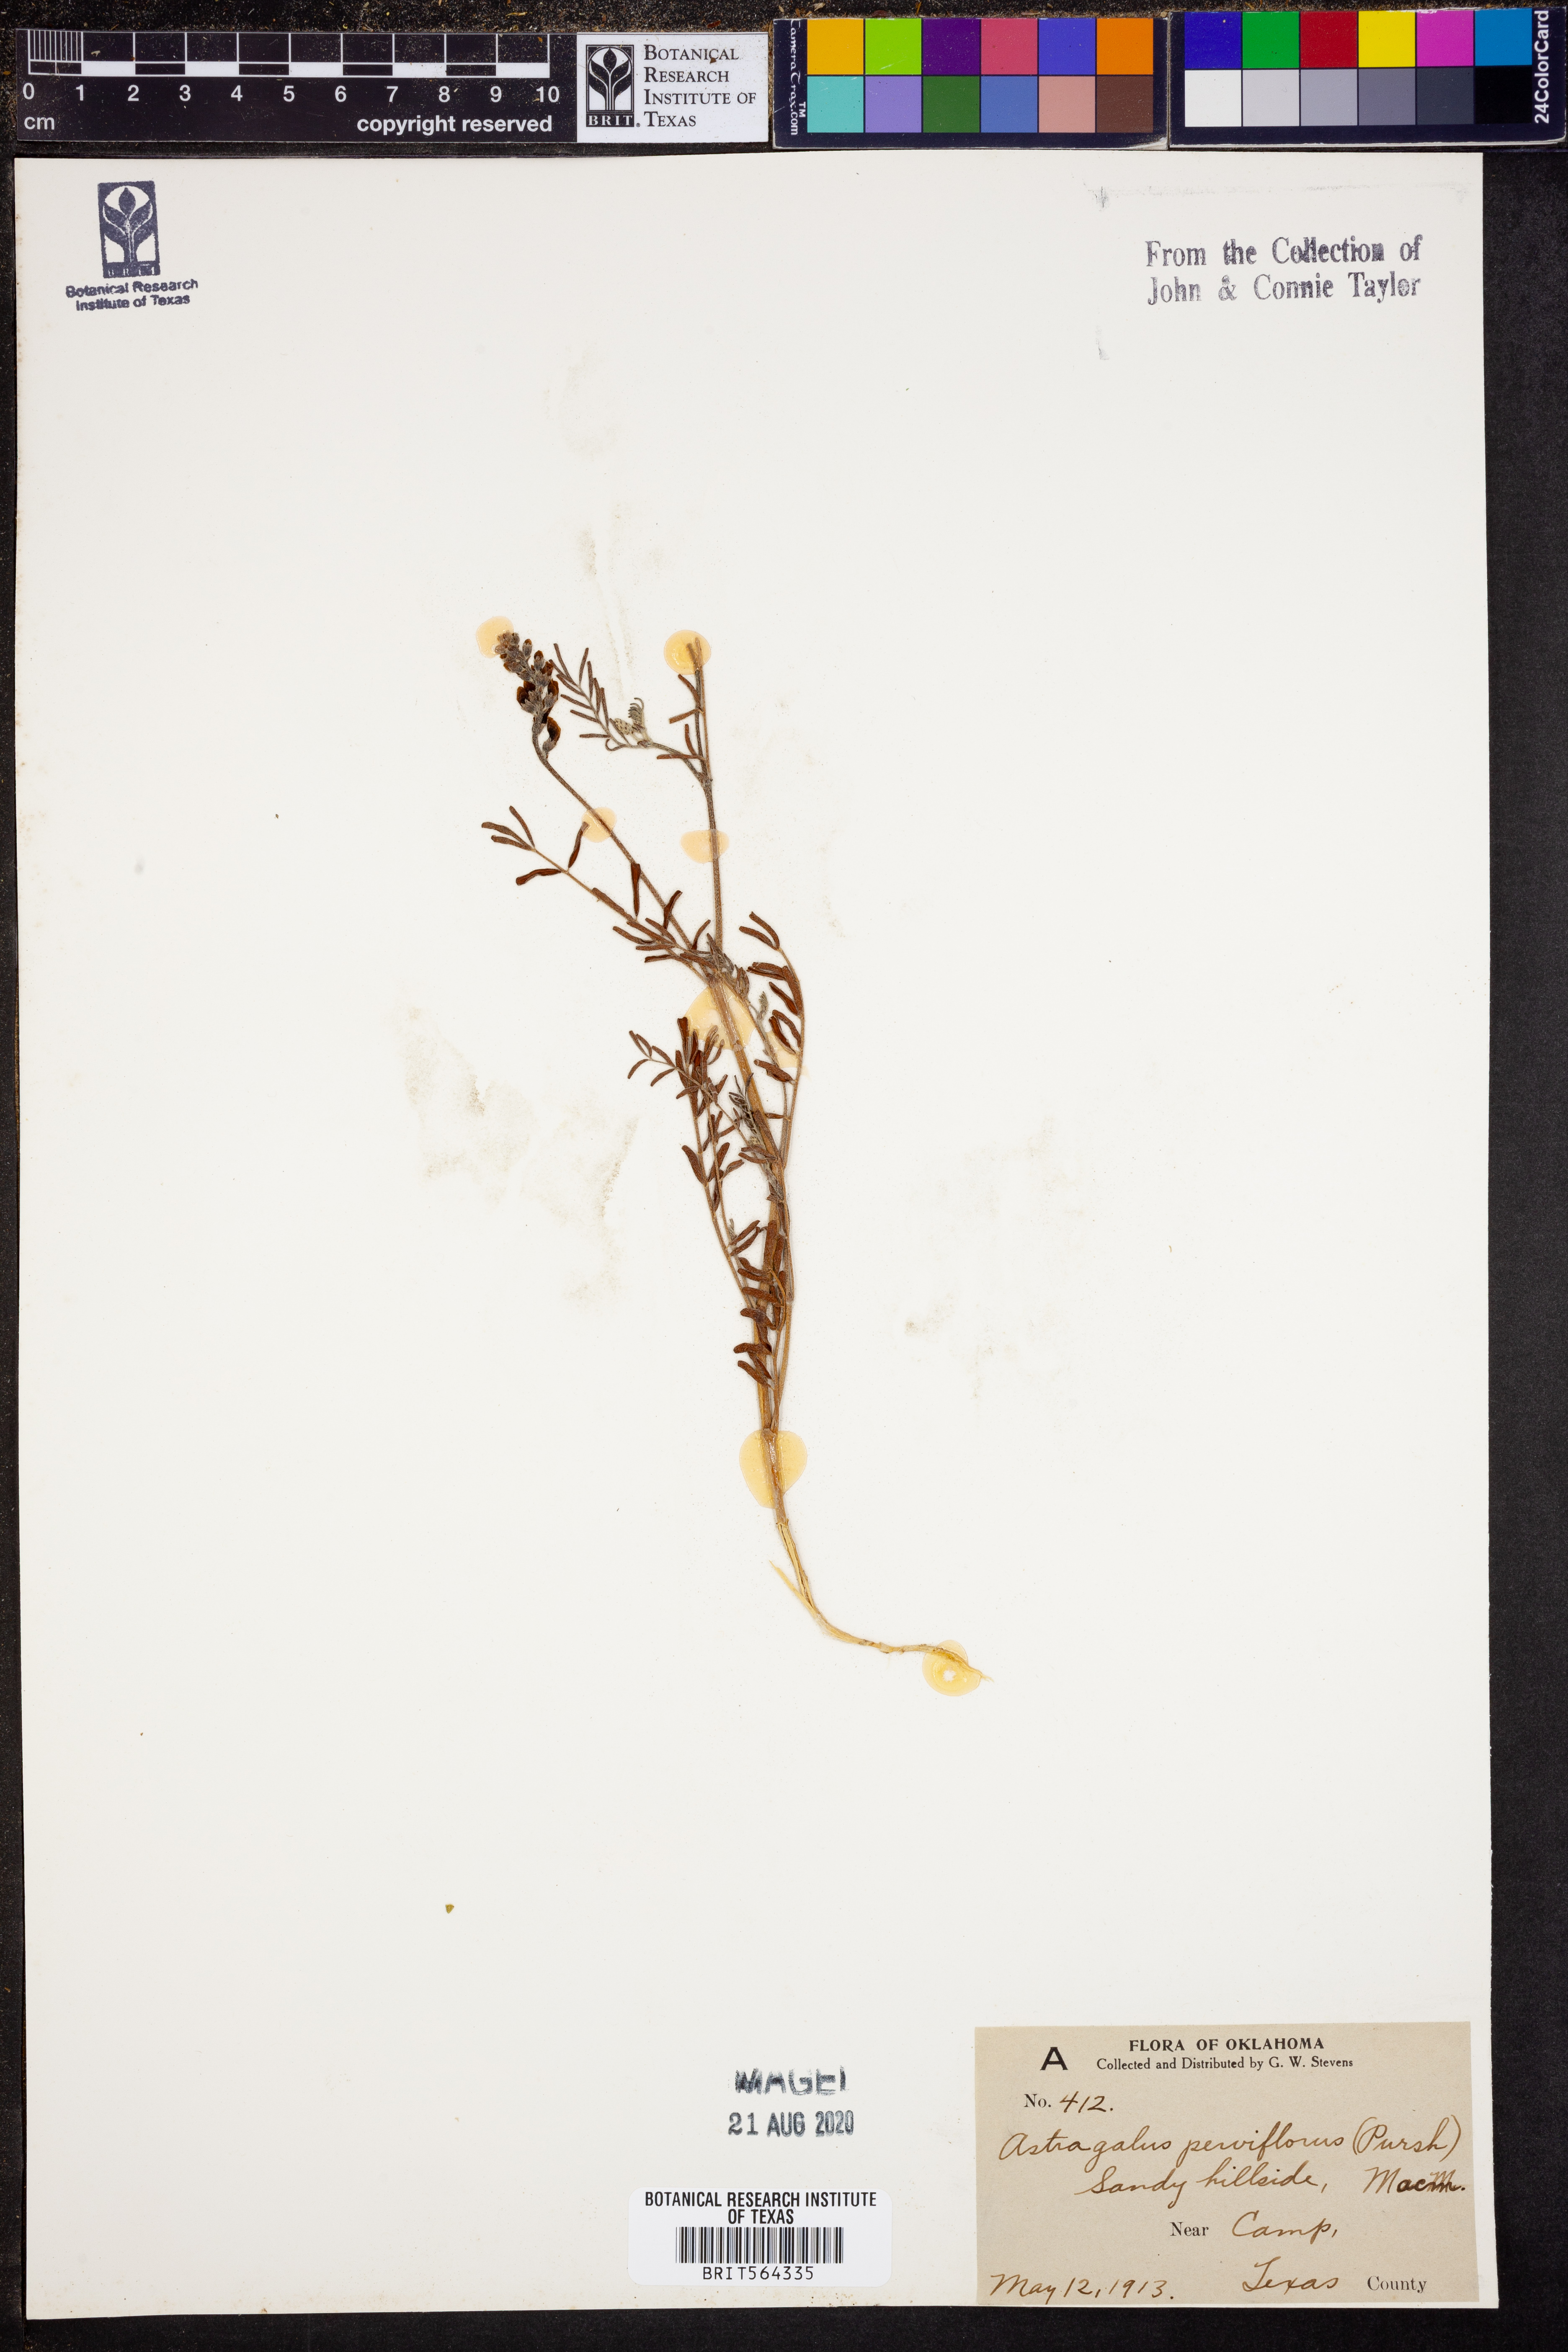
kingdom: Plantae
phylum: Tracheophyta
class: Magnoliopsida
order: Fabales
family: Fabaceae
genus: Astragalus
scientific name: Astragalus gracilis
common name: Slender milk-vetch
